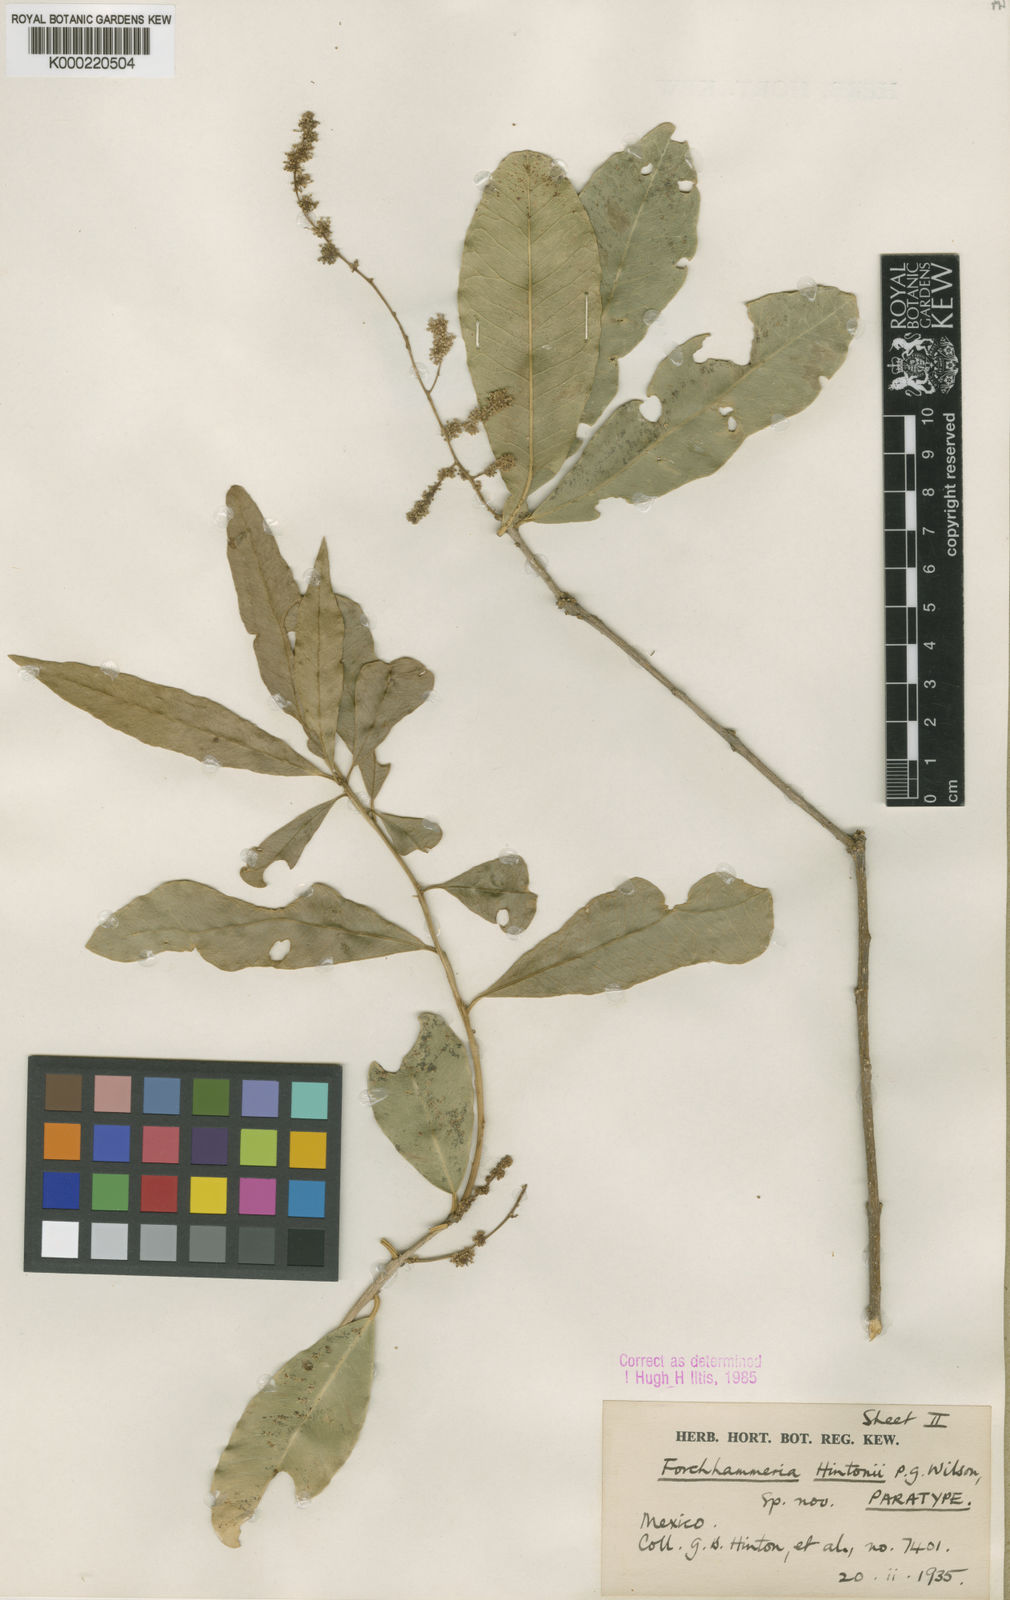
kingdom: Plantae
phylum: Tracheophyta
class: Magnoliopsida
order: Brassicales
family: Stixaceae
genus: Forchhammeria
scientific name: Forchhammeria hintonii
